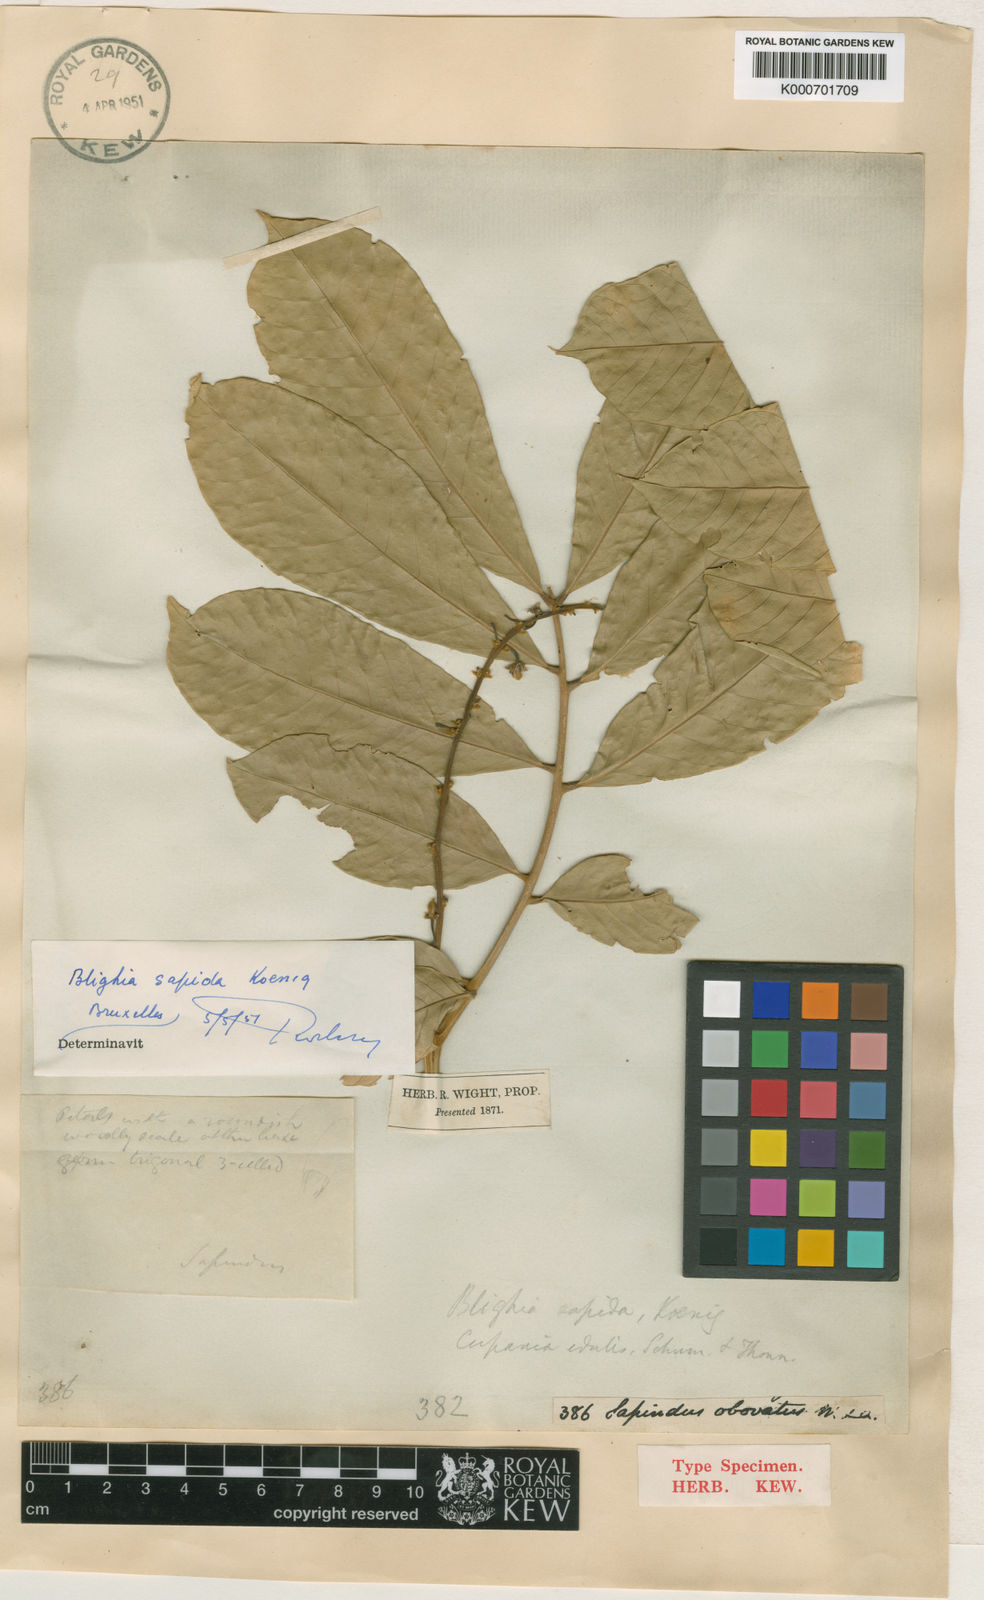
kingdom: Plantae
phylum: Tracheophyta
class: Magnoliopsida
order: Sapindales
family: Sapindaceae
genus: Blighia
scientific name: Blighia sapida
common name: Akee
